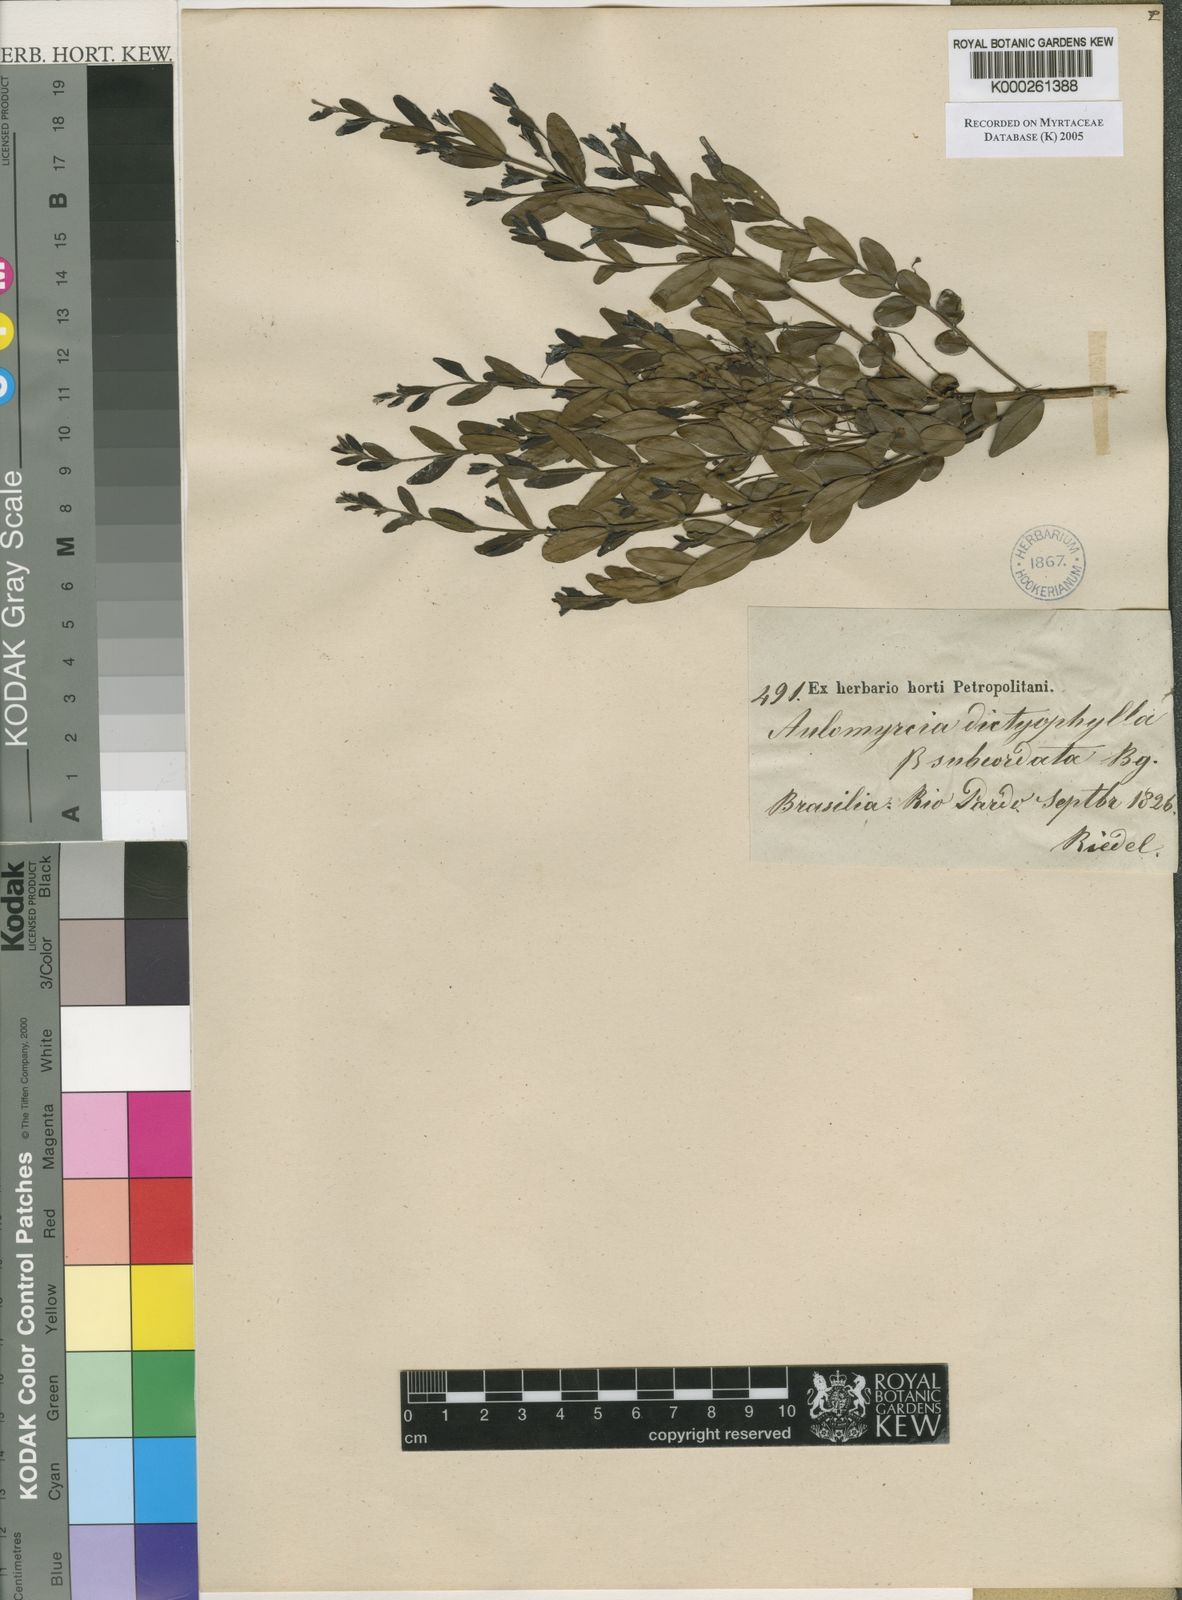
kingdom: Plantae
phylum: Tracheophyta
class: Magnoliopsida
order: Myrtales
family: Myrtaceae
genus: Myrcia
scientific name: Myrcia guianensis
